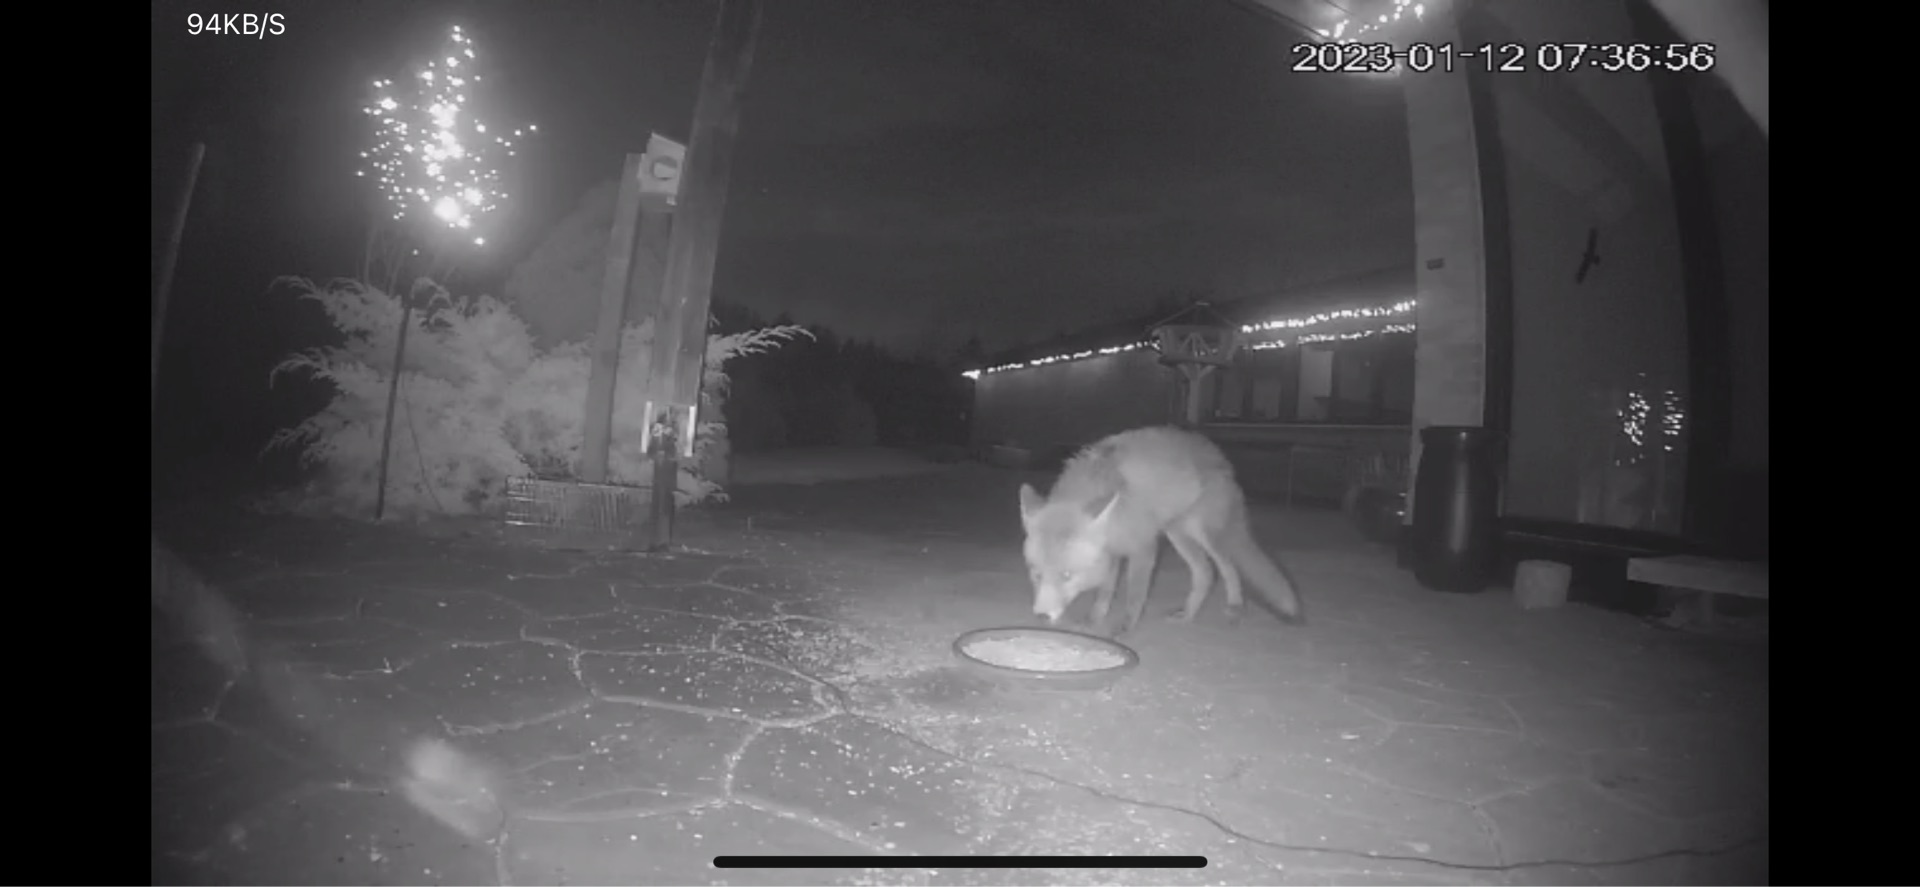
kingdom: Animalia
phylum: Chordata
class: Mammalia
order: Carnivora
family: Canidae
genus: Vulpes
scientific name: Vulpes vulpes
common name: Ræv
